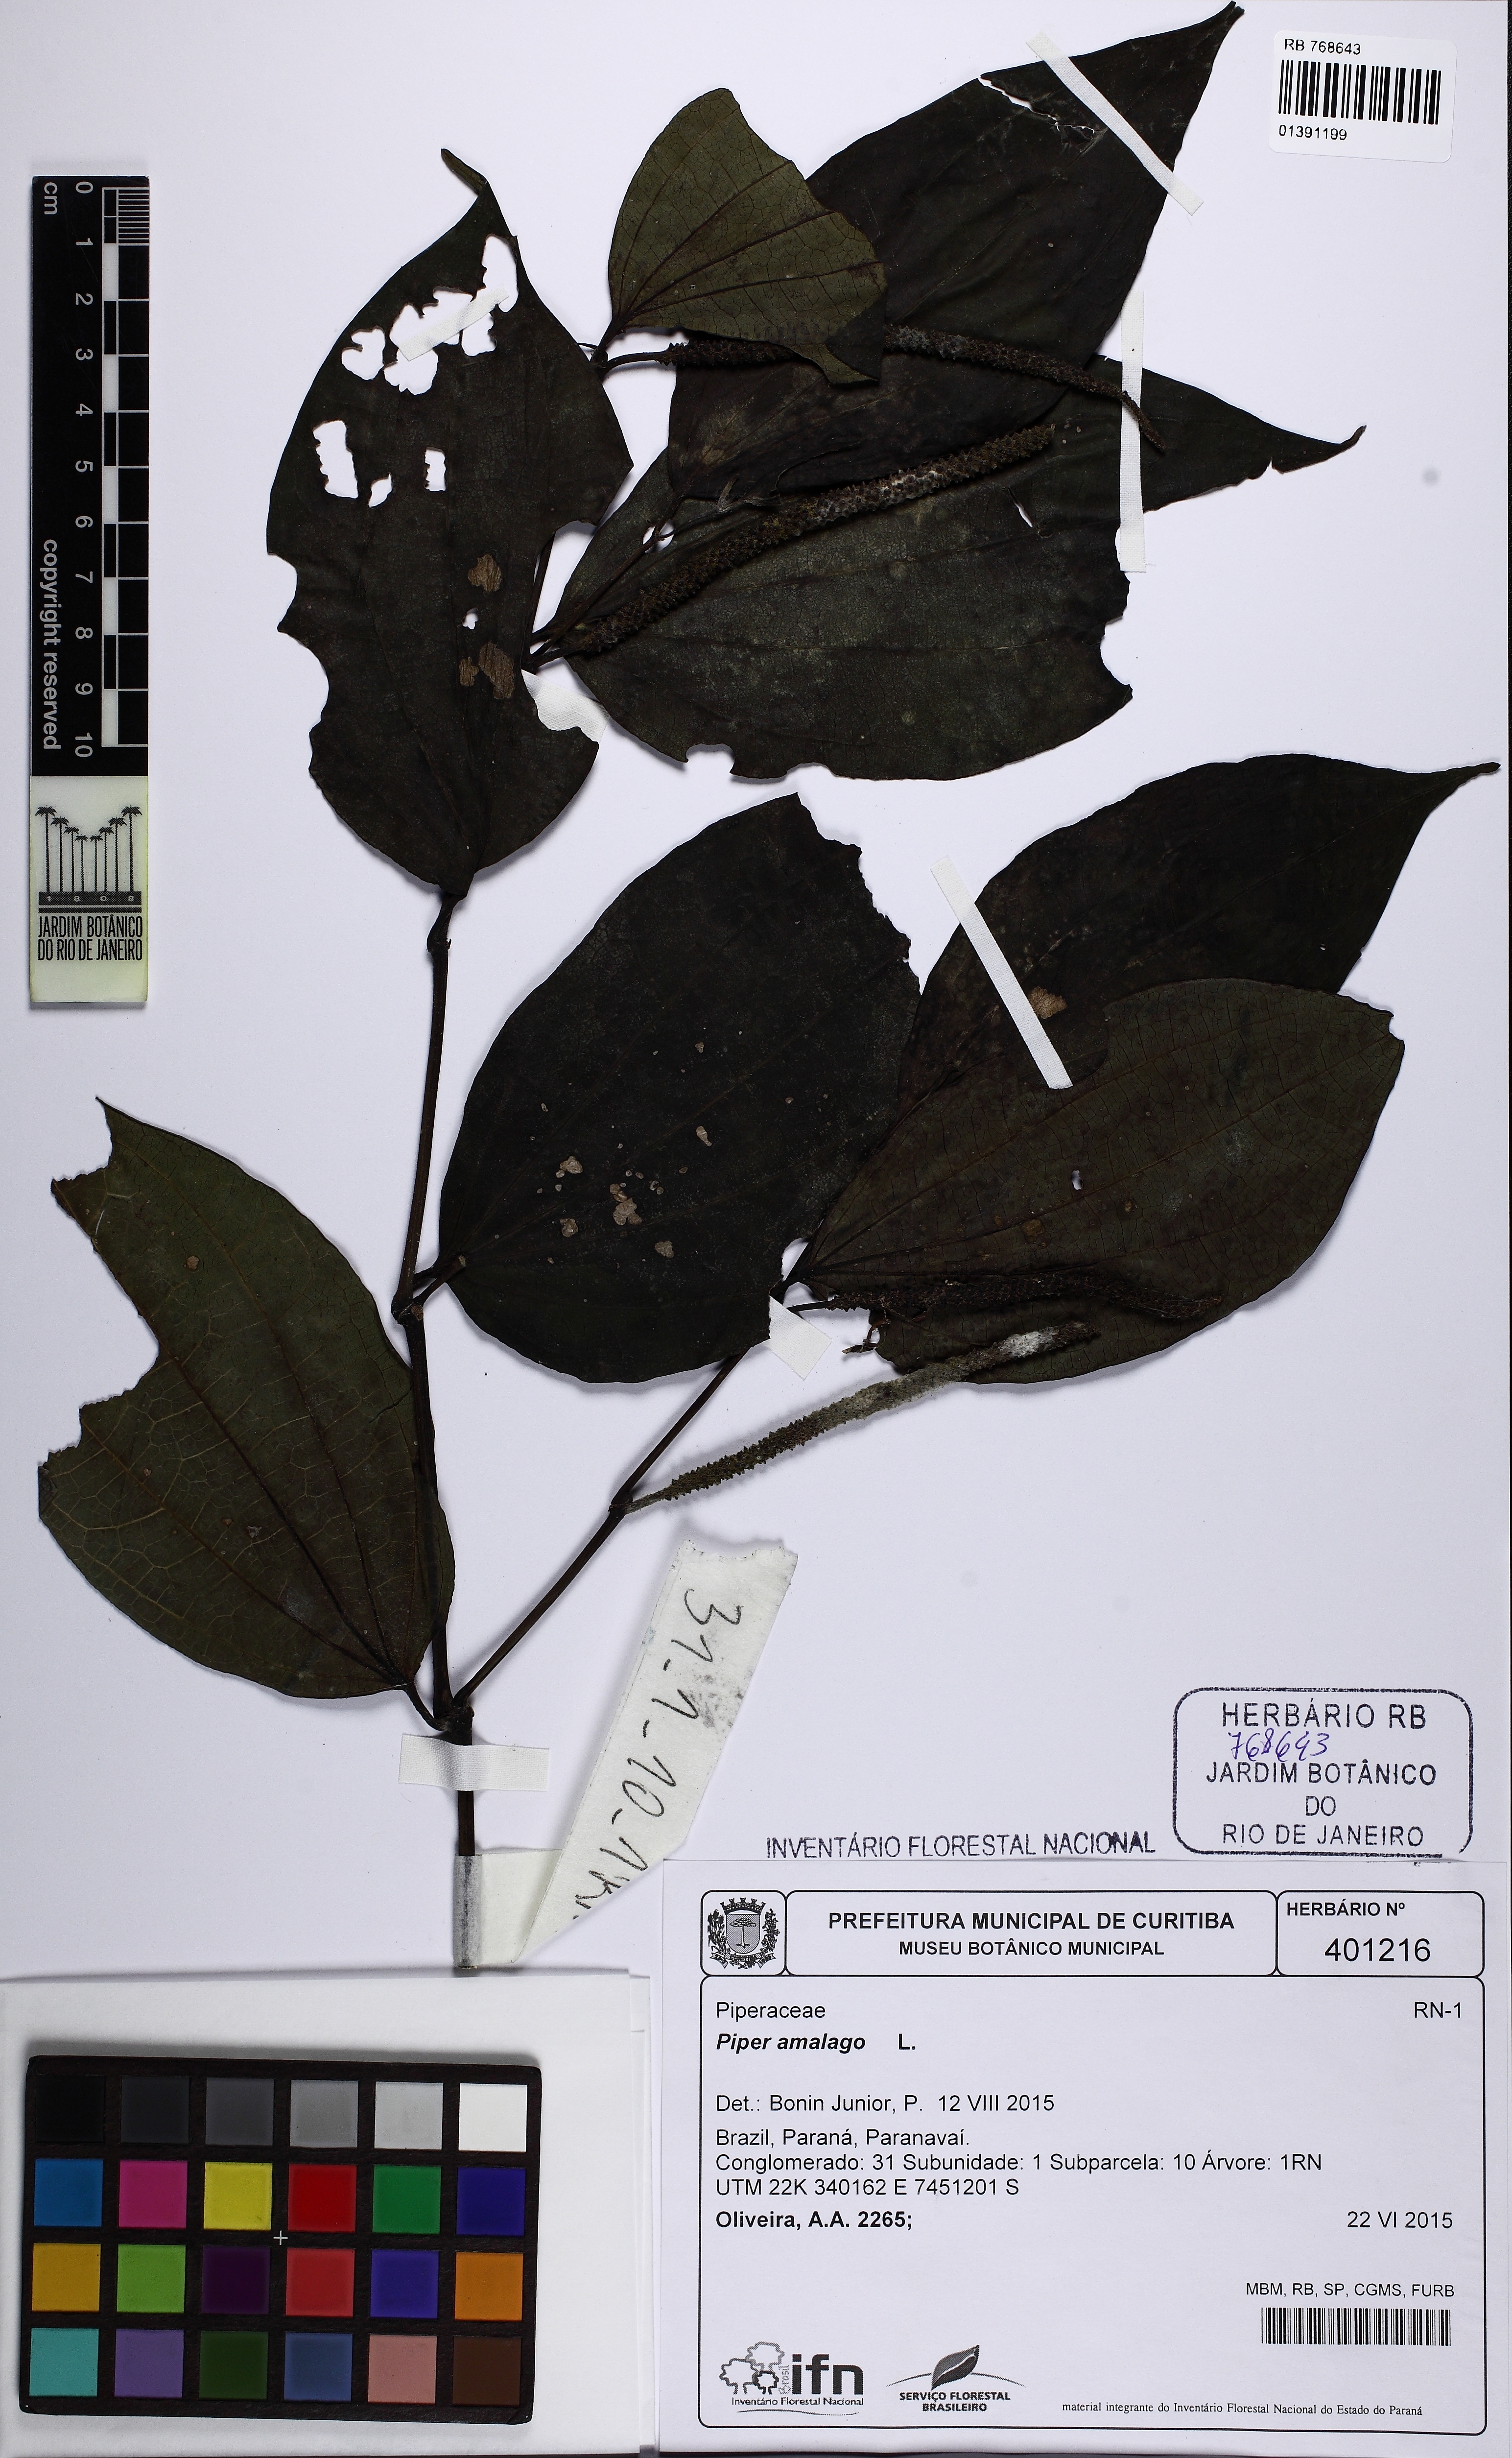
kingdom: Plantae
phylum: Tracheophyta
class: Magnoliopsida
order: Piperales
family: Piperaceae
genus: Piper
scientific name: Piper amalago
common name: Pepper-elder
